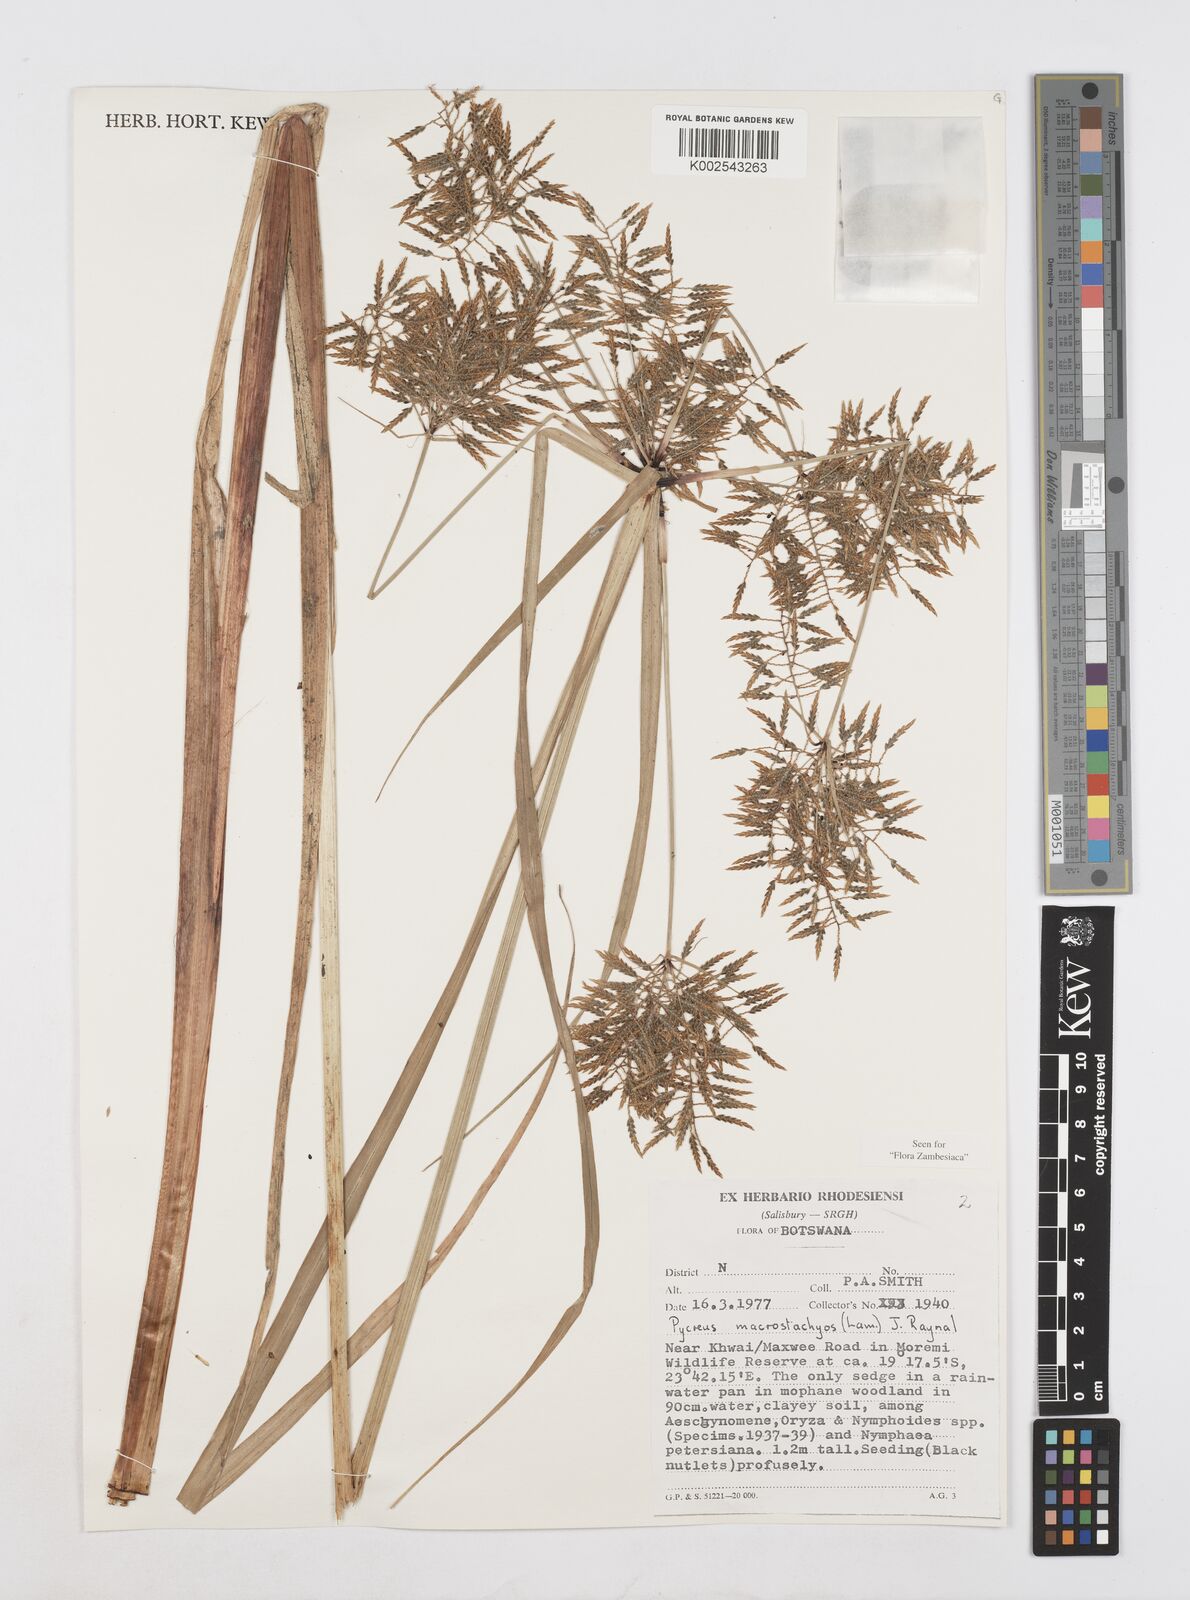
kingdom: Plantae
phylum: Tracheophyta
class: Liliopsida
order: Poales
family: Cyperaceae
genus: Cyperus
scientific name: Cyperus macrostachyos
